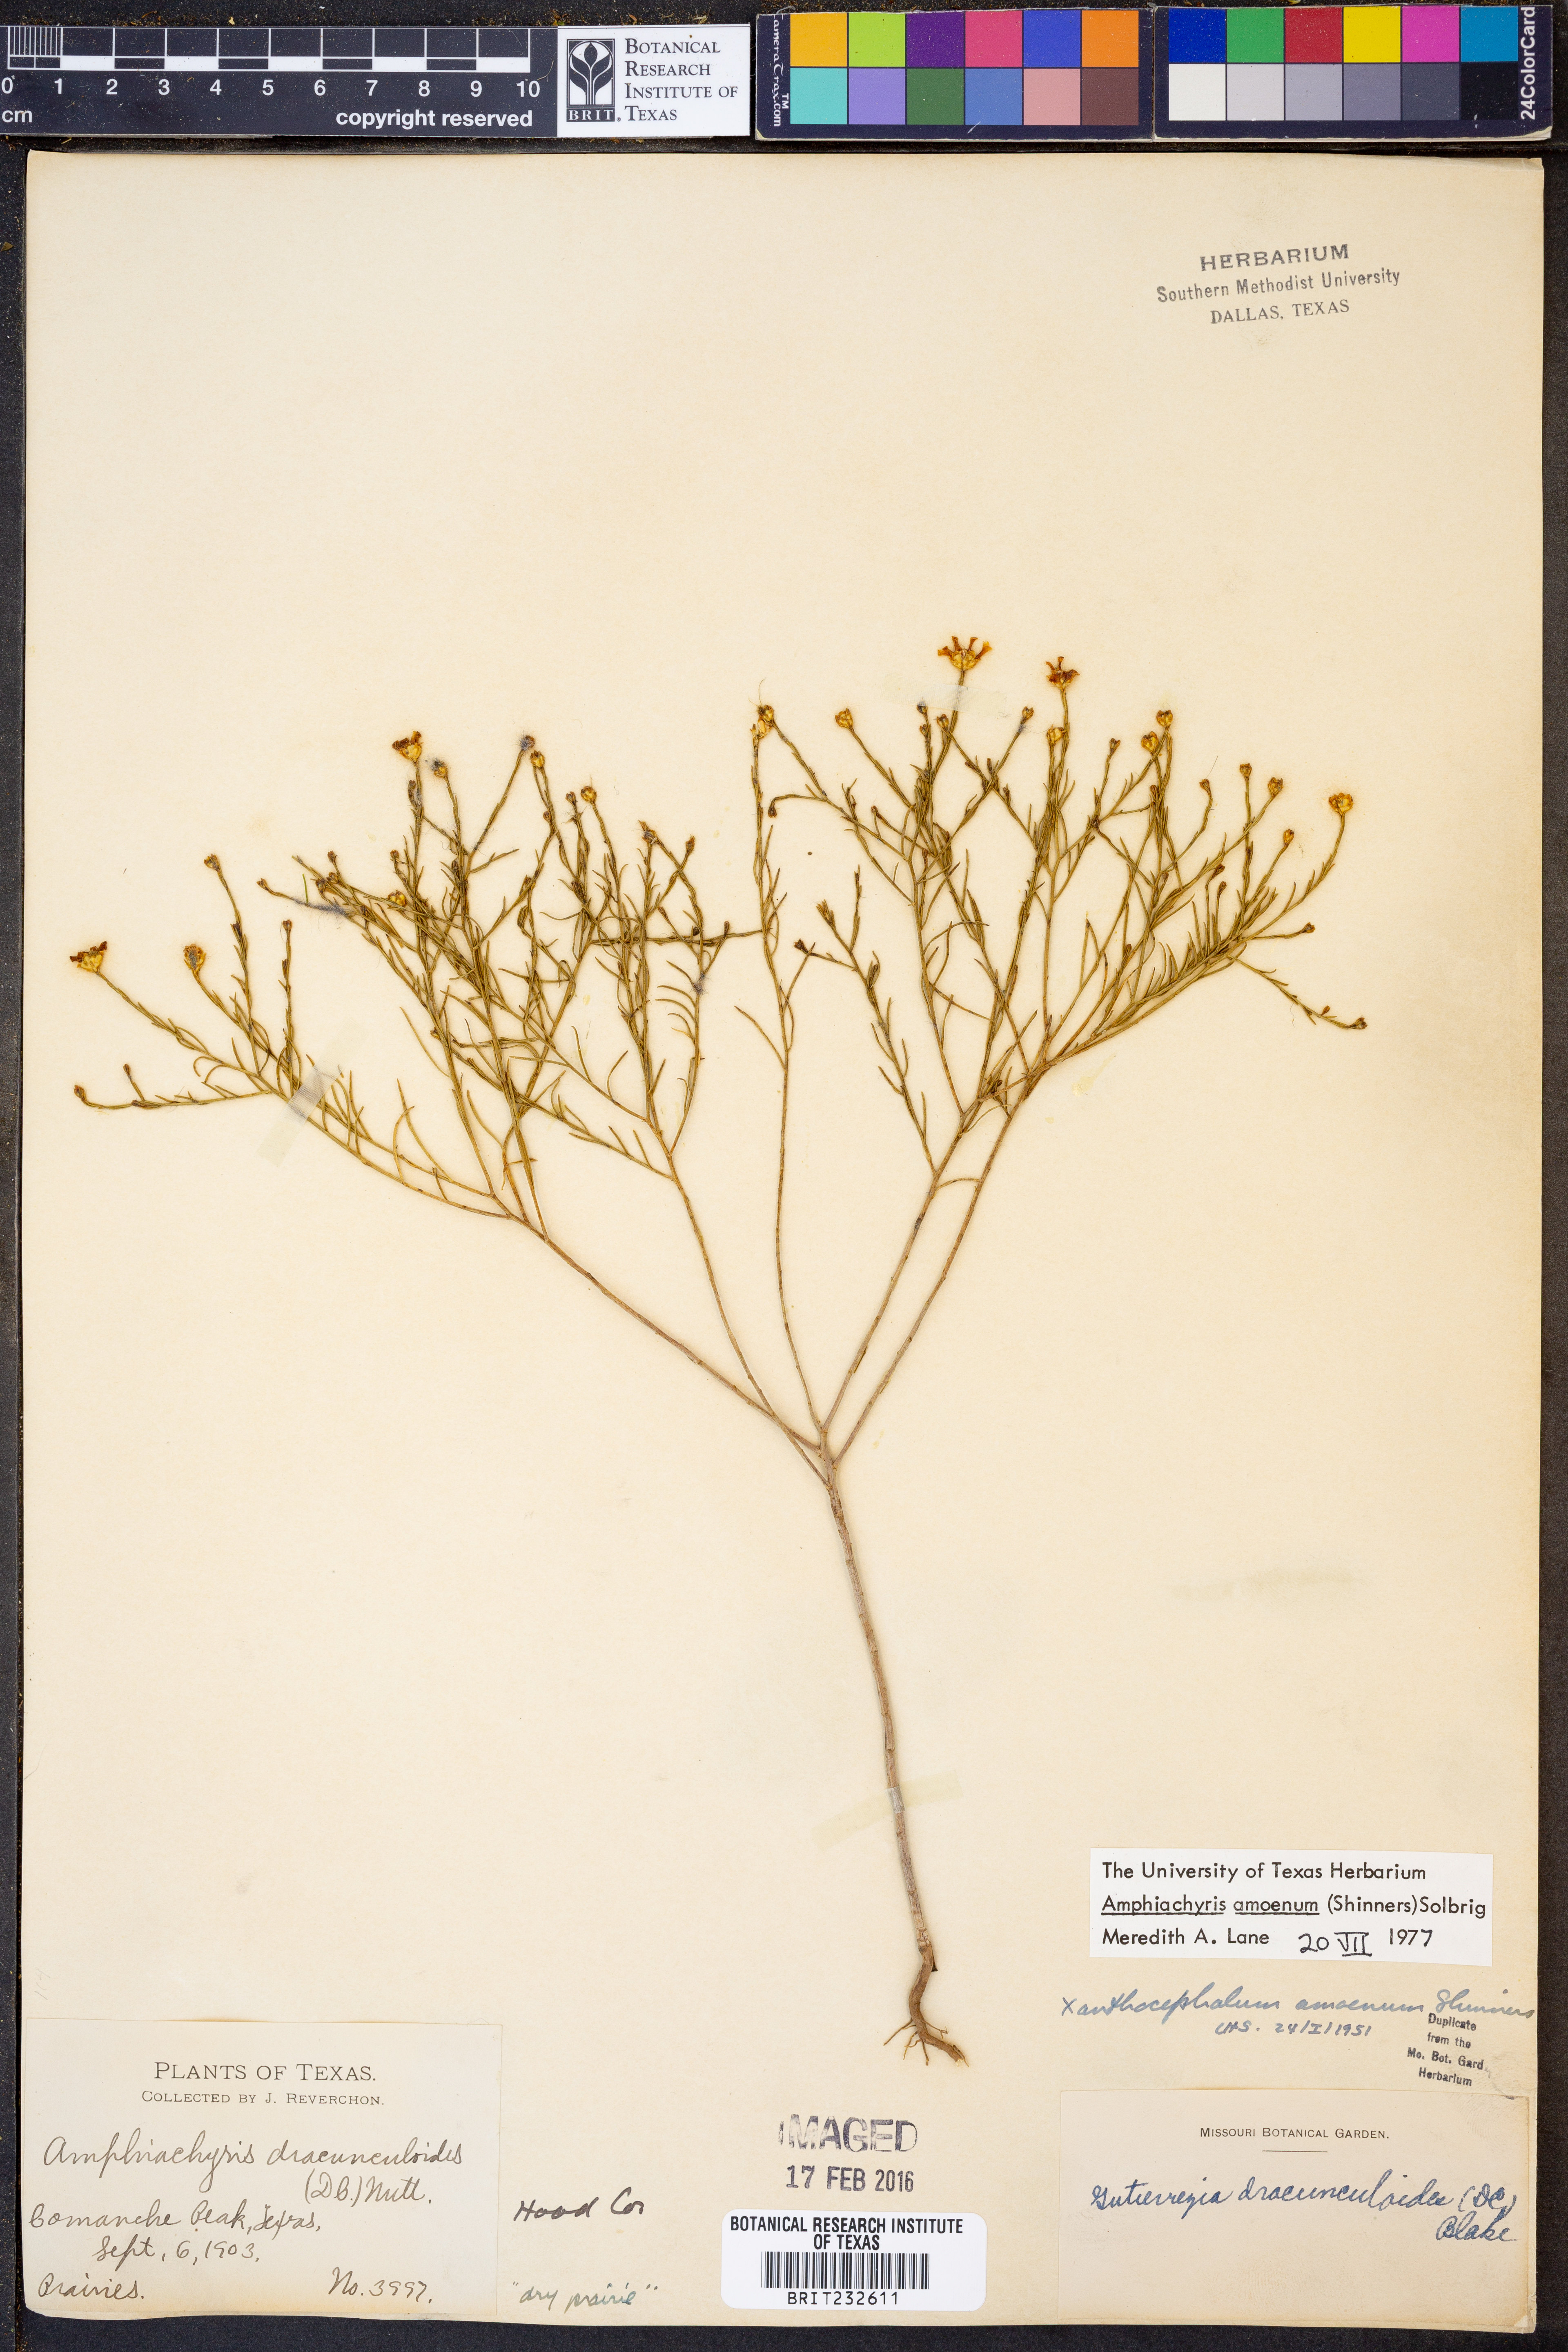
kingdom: Plantae
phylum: Tracheophyta
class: Magnoliopsida
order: Asterales
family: Asteraceae
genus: Amphiachyris
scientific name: Amphiachyris amoenum
